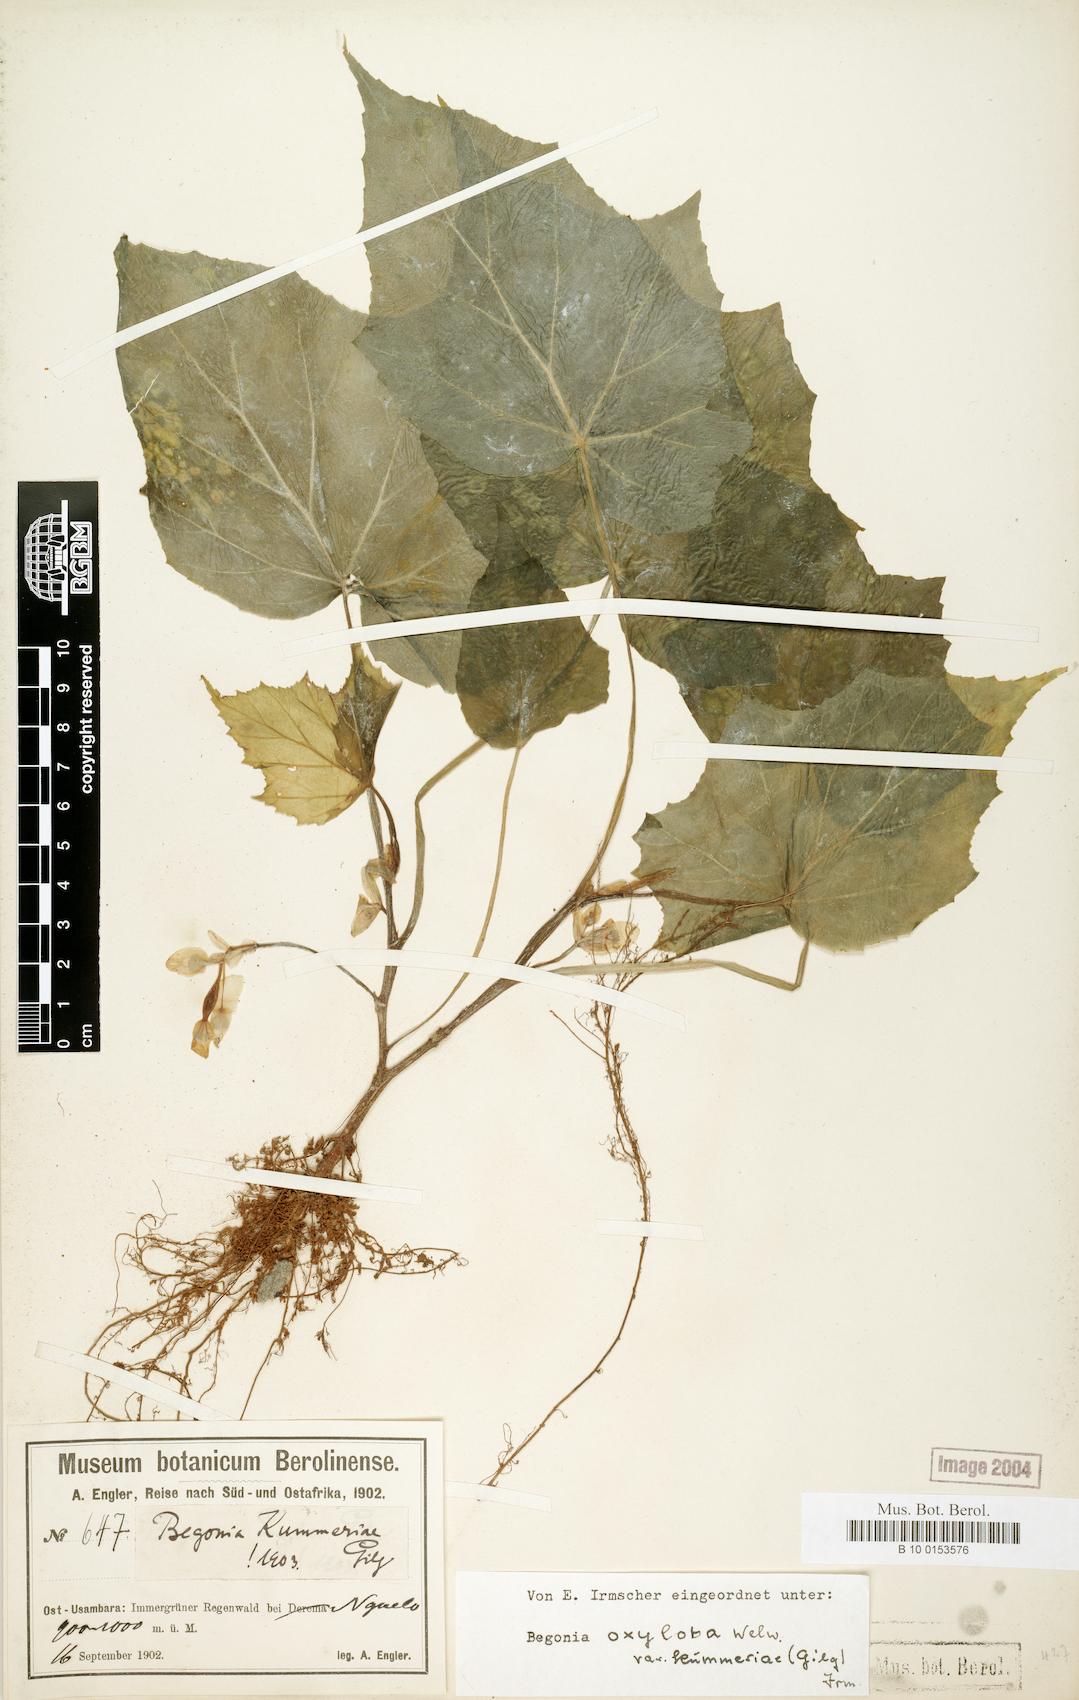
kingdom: Plantae
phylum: Tracheophyta
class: Magnoliopsida
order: Cucurbitales
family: Begoniaceae
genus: Begonia
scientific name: Begonia oxyloba
